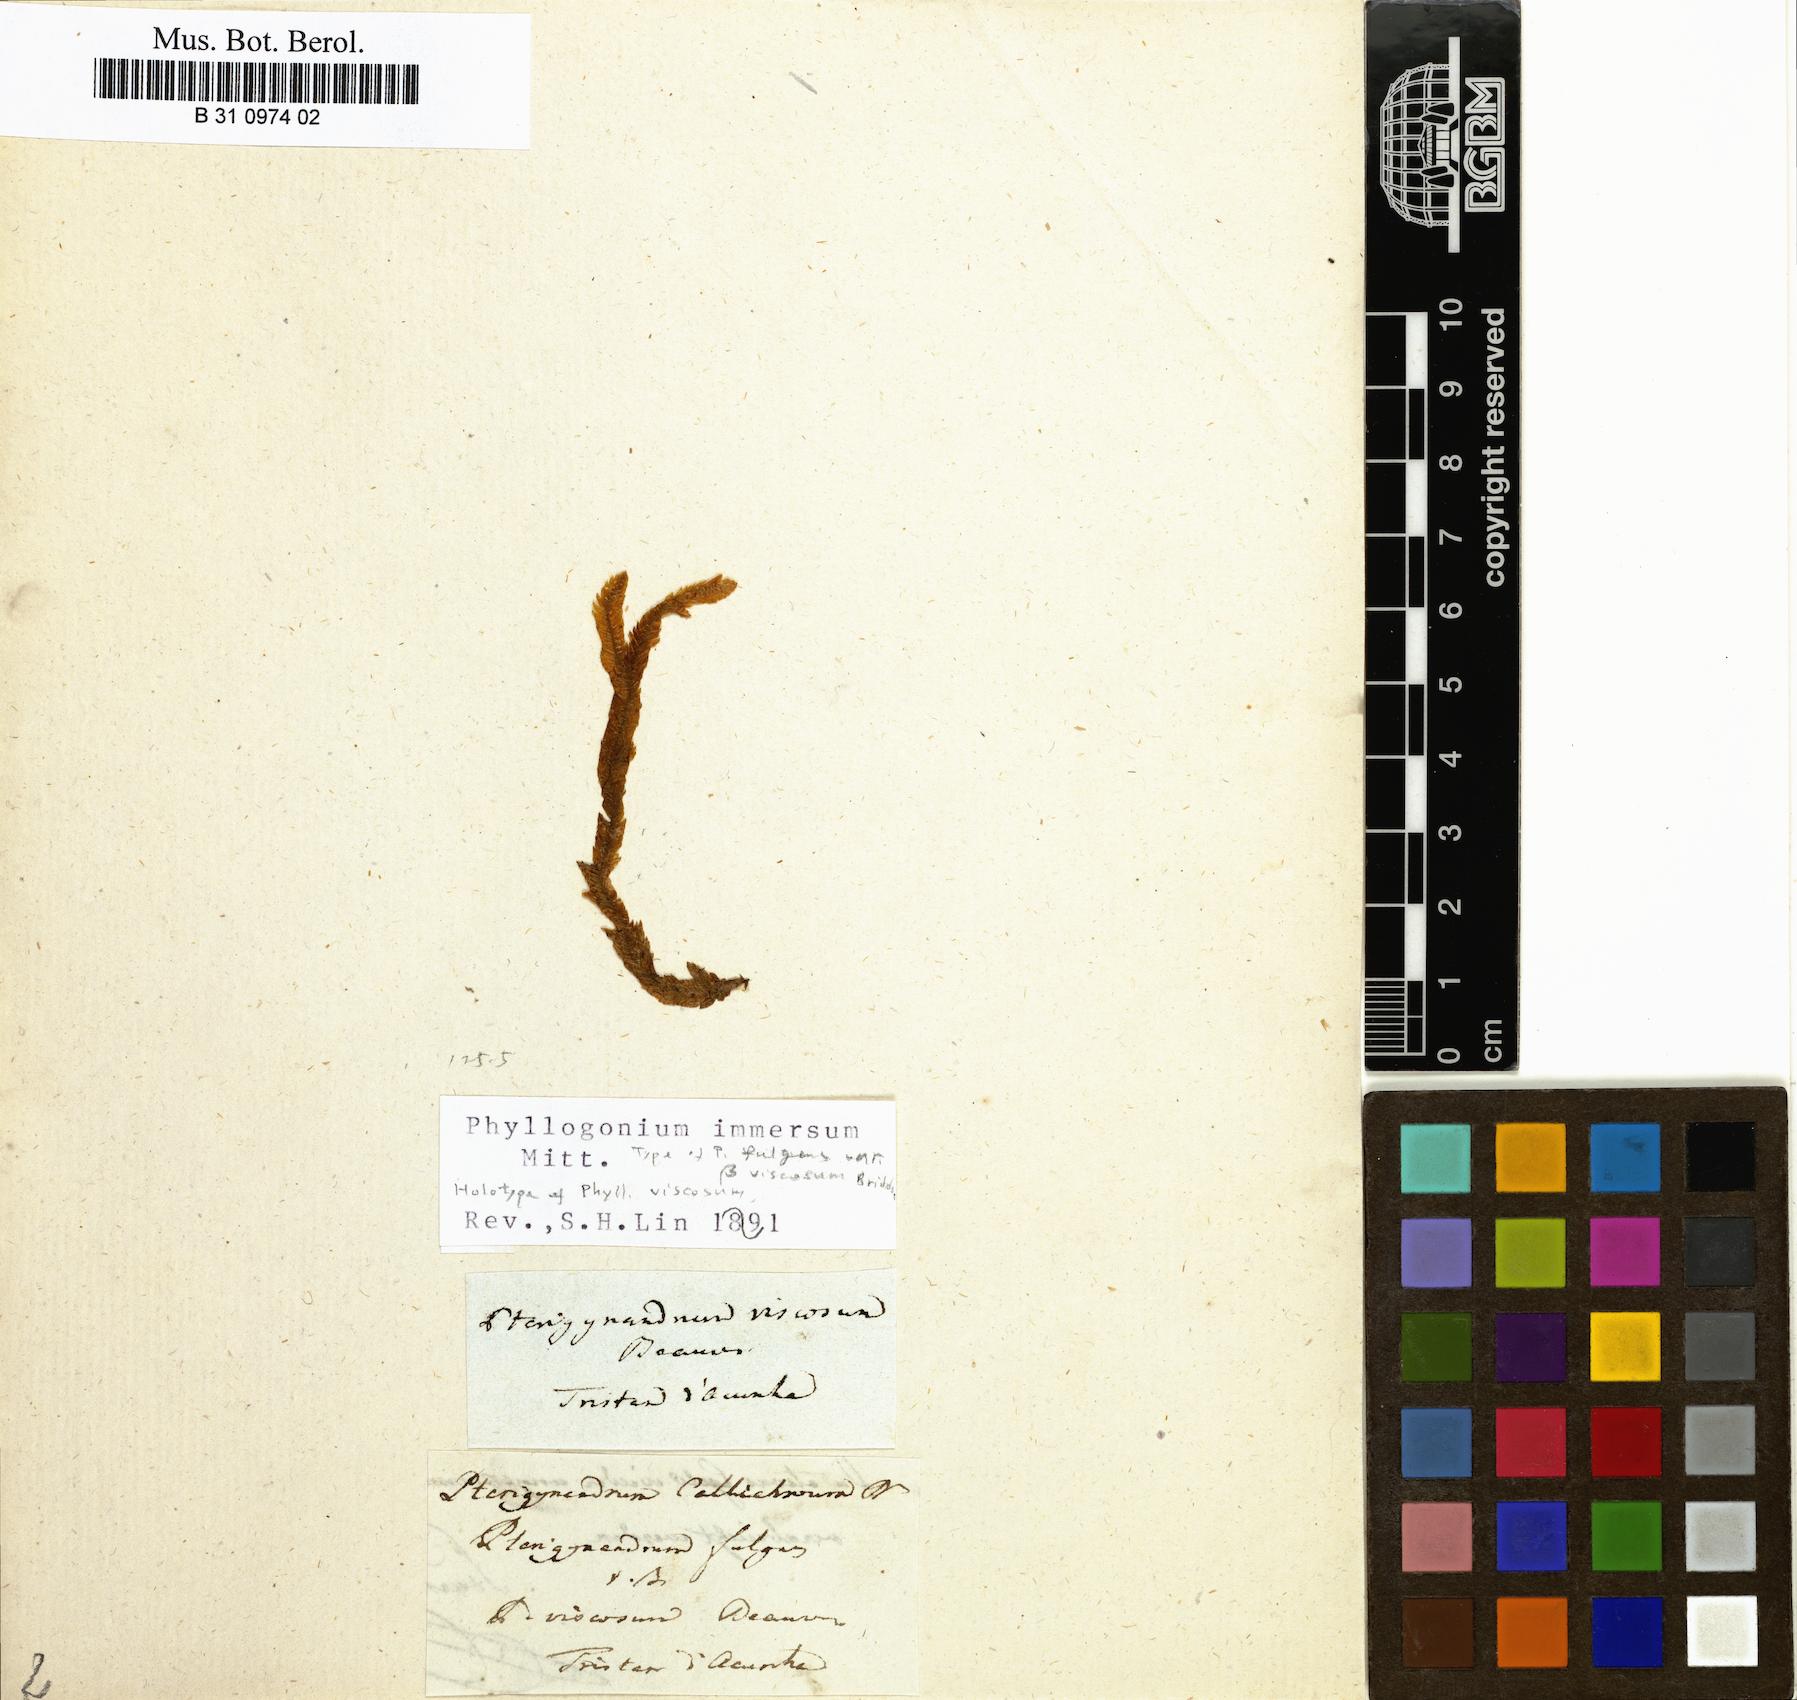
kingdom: Plantae
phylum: Bryophyta
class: Bryopsida
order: Hypnales
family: Phyllogoniaceae
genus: Phyllogonium
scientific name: Phyllogonium fulgens
